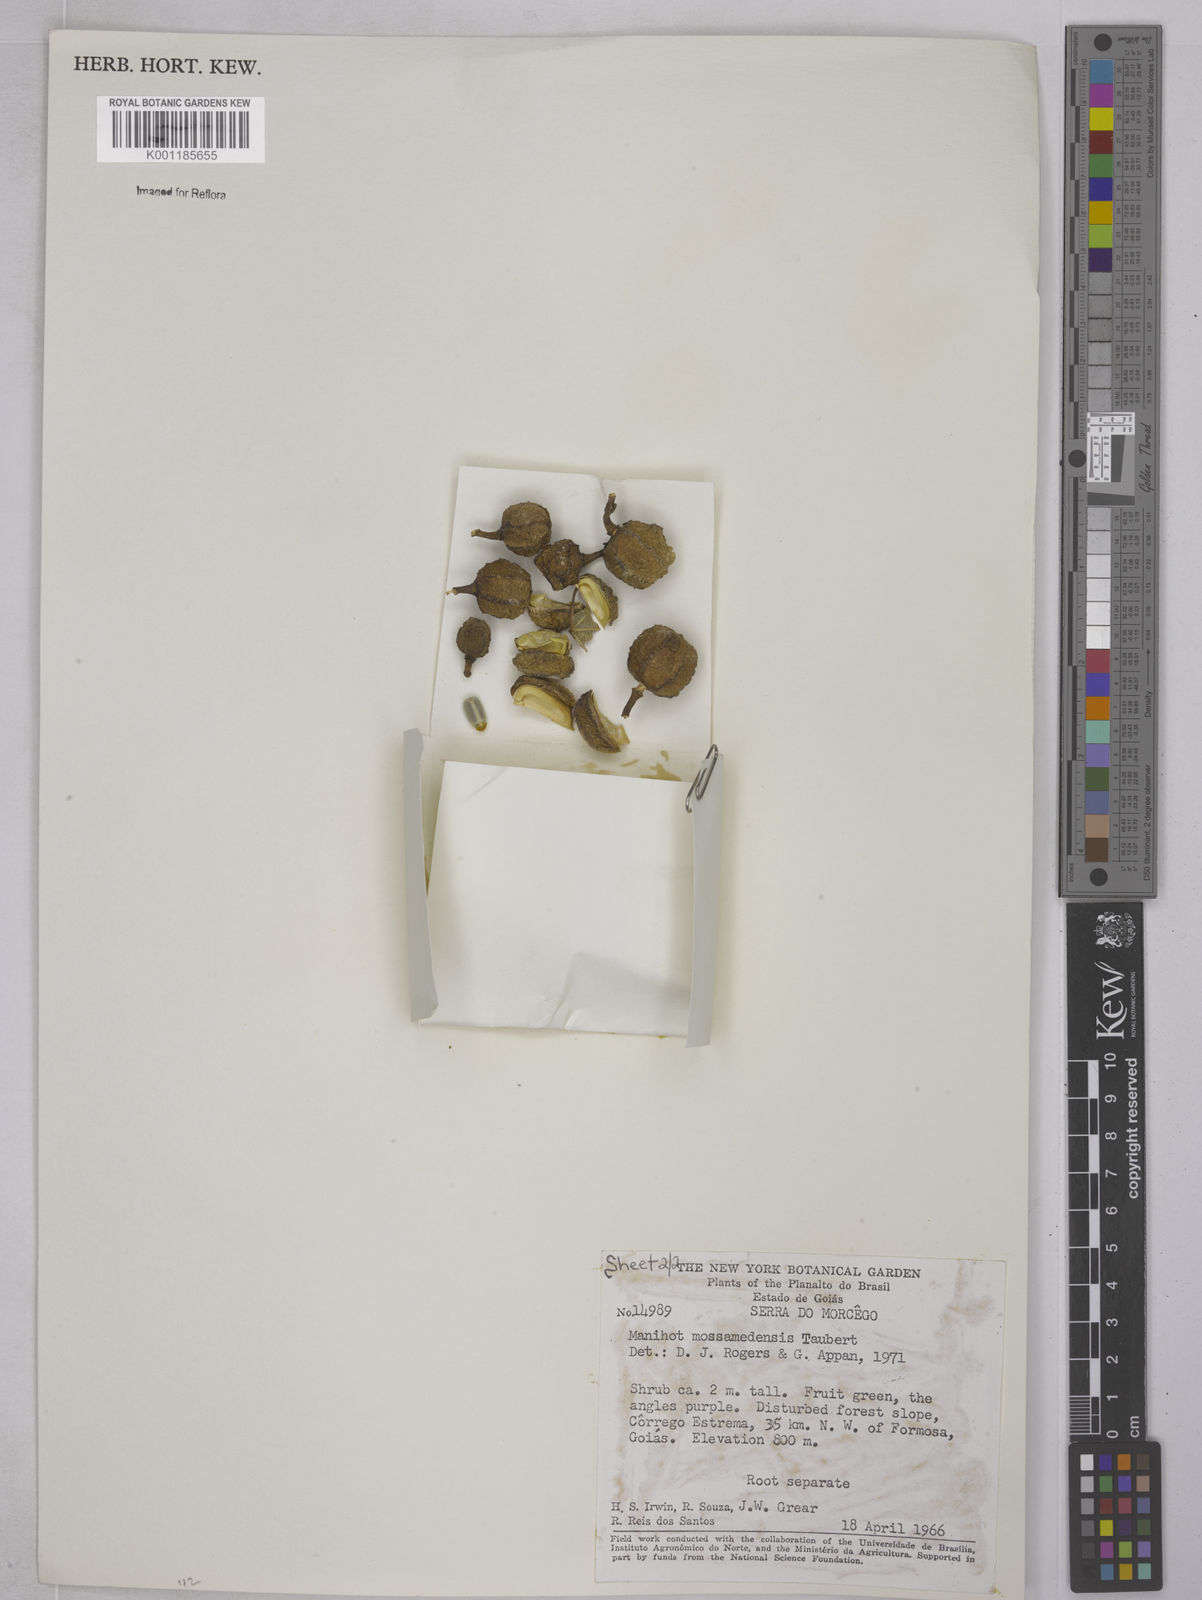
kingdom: Plantae
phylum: Tracheophyta
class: Magnoliopsida
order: Malpighiales
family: Euphorbiaceae
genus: Manihot
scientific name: Manihot mossamedensis
